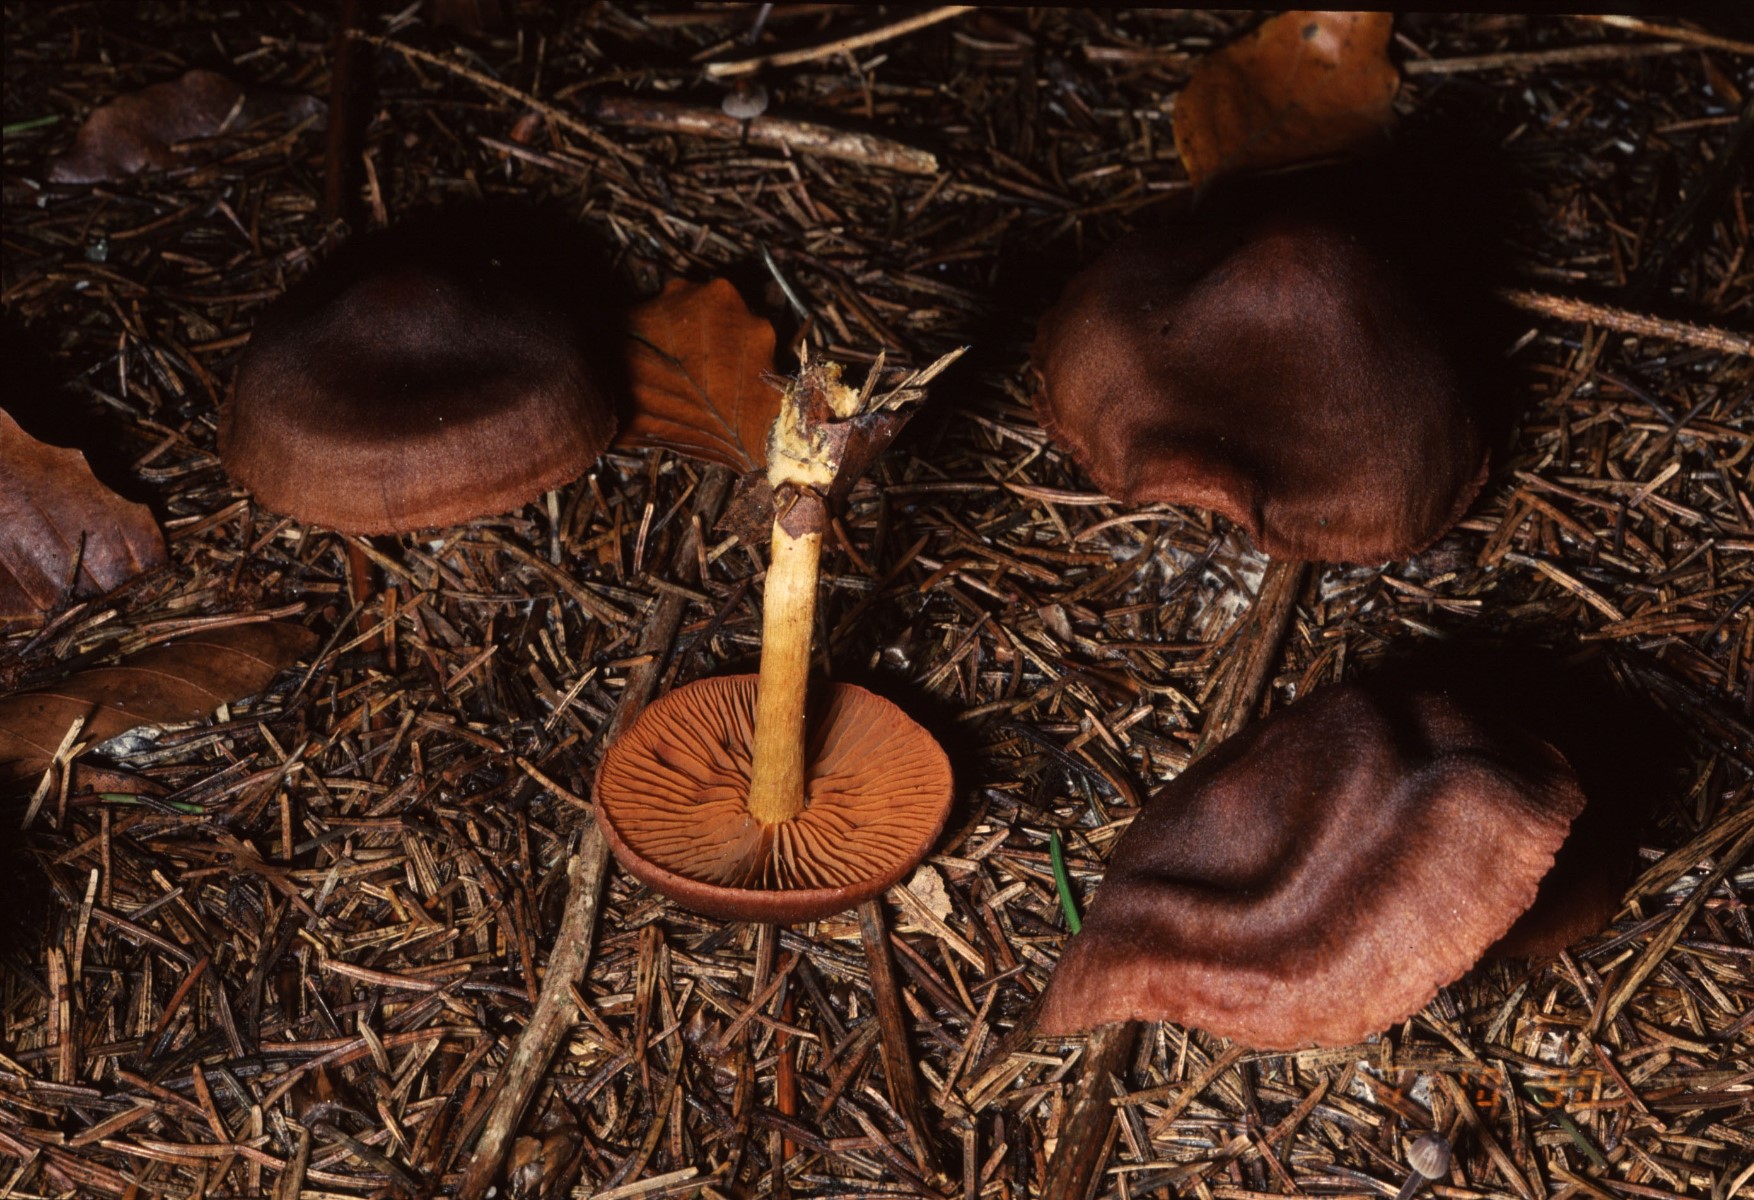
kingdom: Fungi
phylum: Basidiomycota
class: Agaricomycetes
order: Agaricales
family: Cortinariaceae
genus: Cortinarius
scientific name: Cortinarius
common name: cinnoberbladet slørhat
